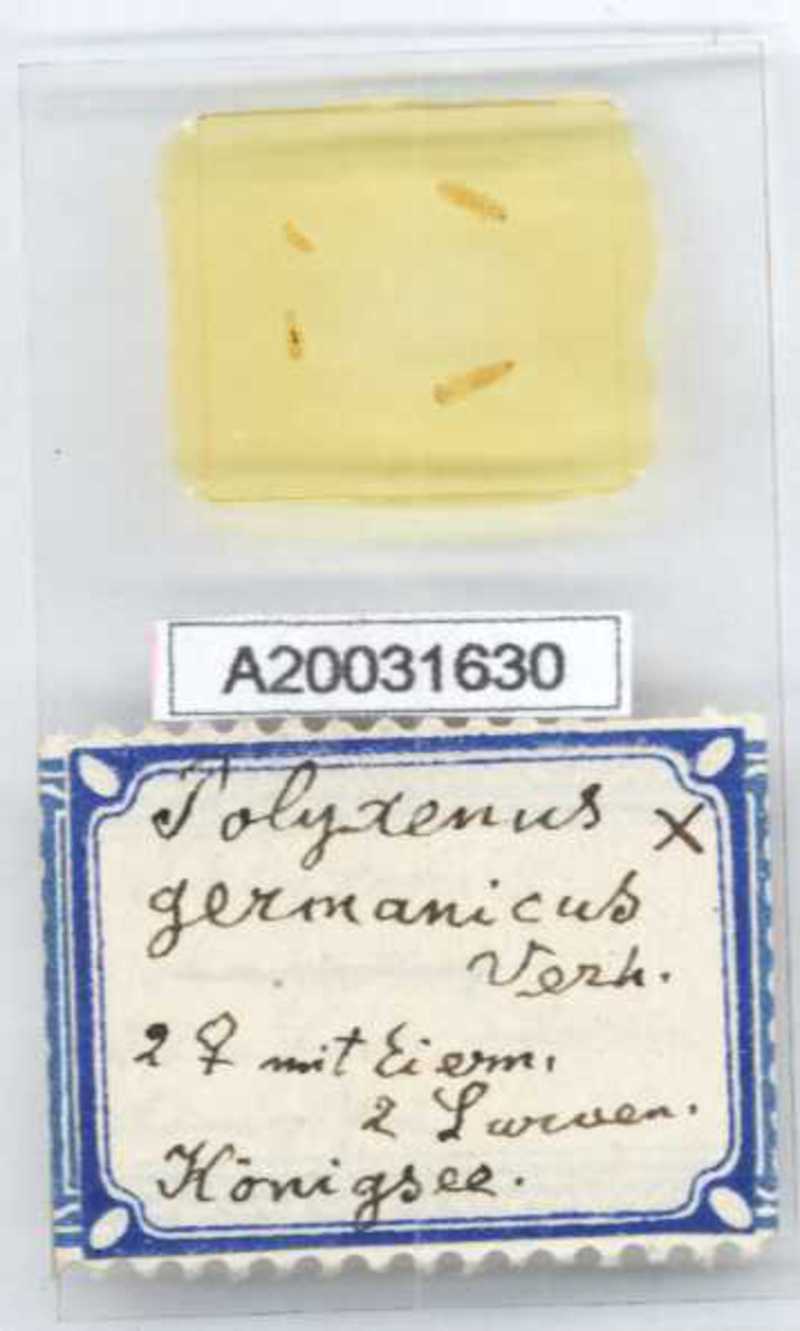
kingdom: Animalia
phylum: Arthropoda
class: Diplopoda
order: Polyxenida
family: Polyxenidae
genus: Polyxenus
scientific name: Polyxenus lagurus
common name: Bristly millipede
